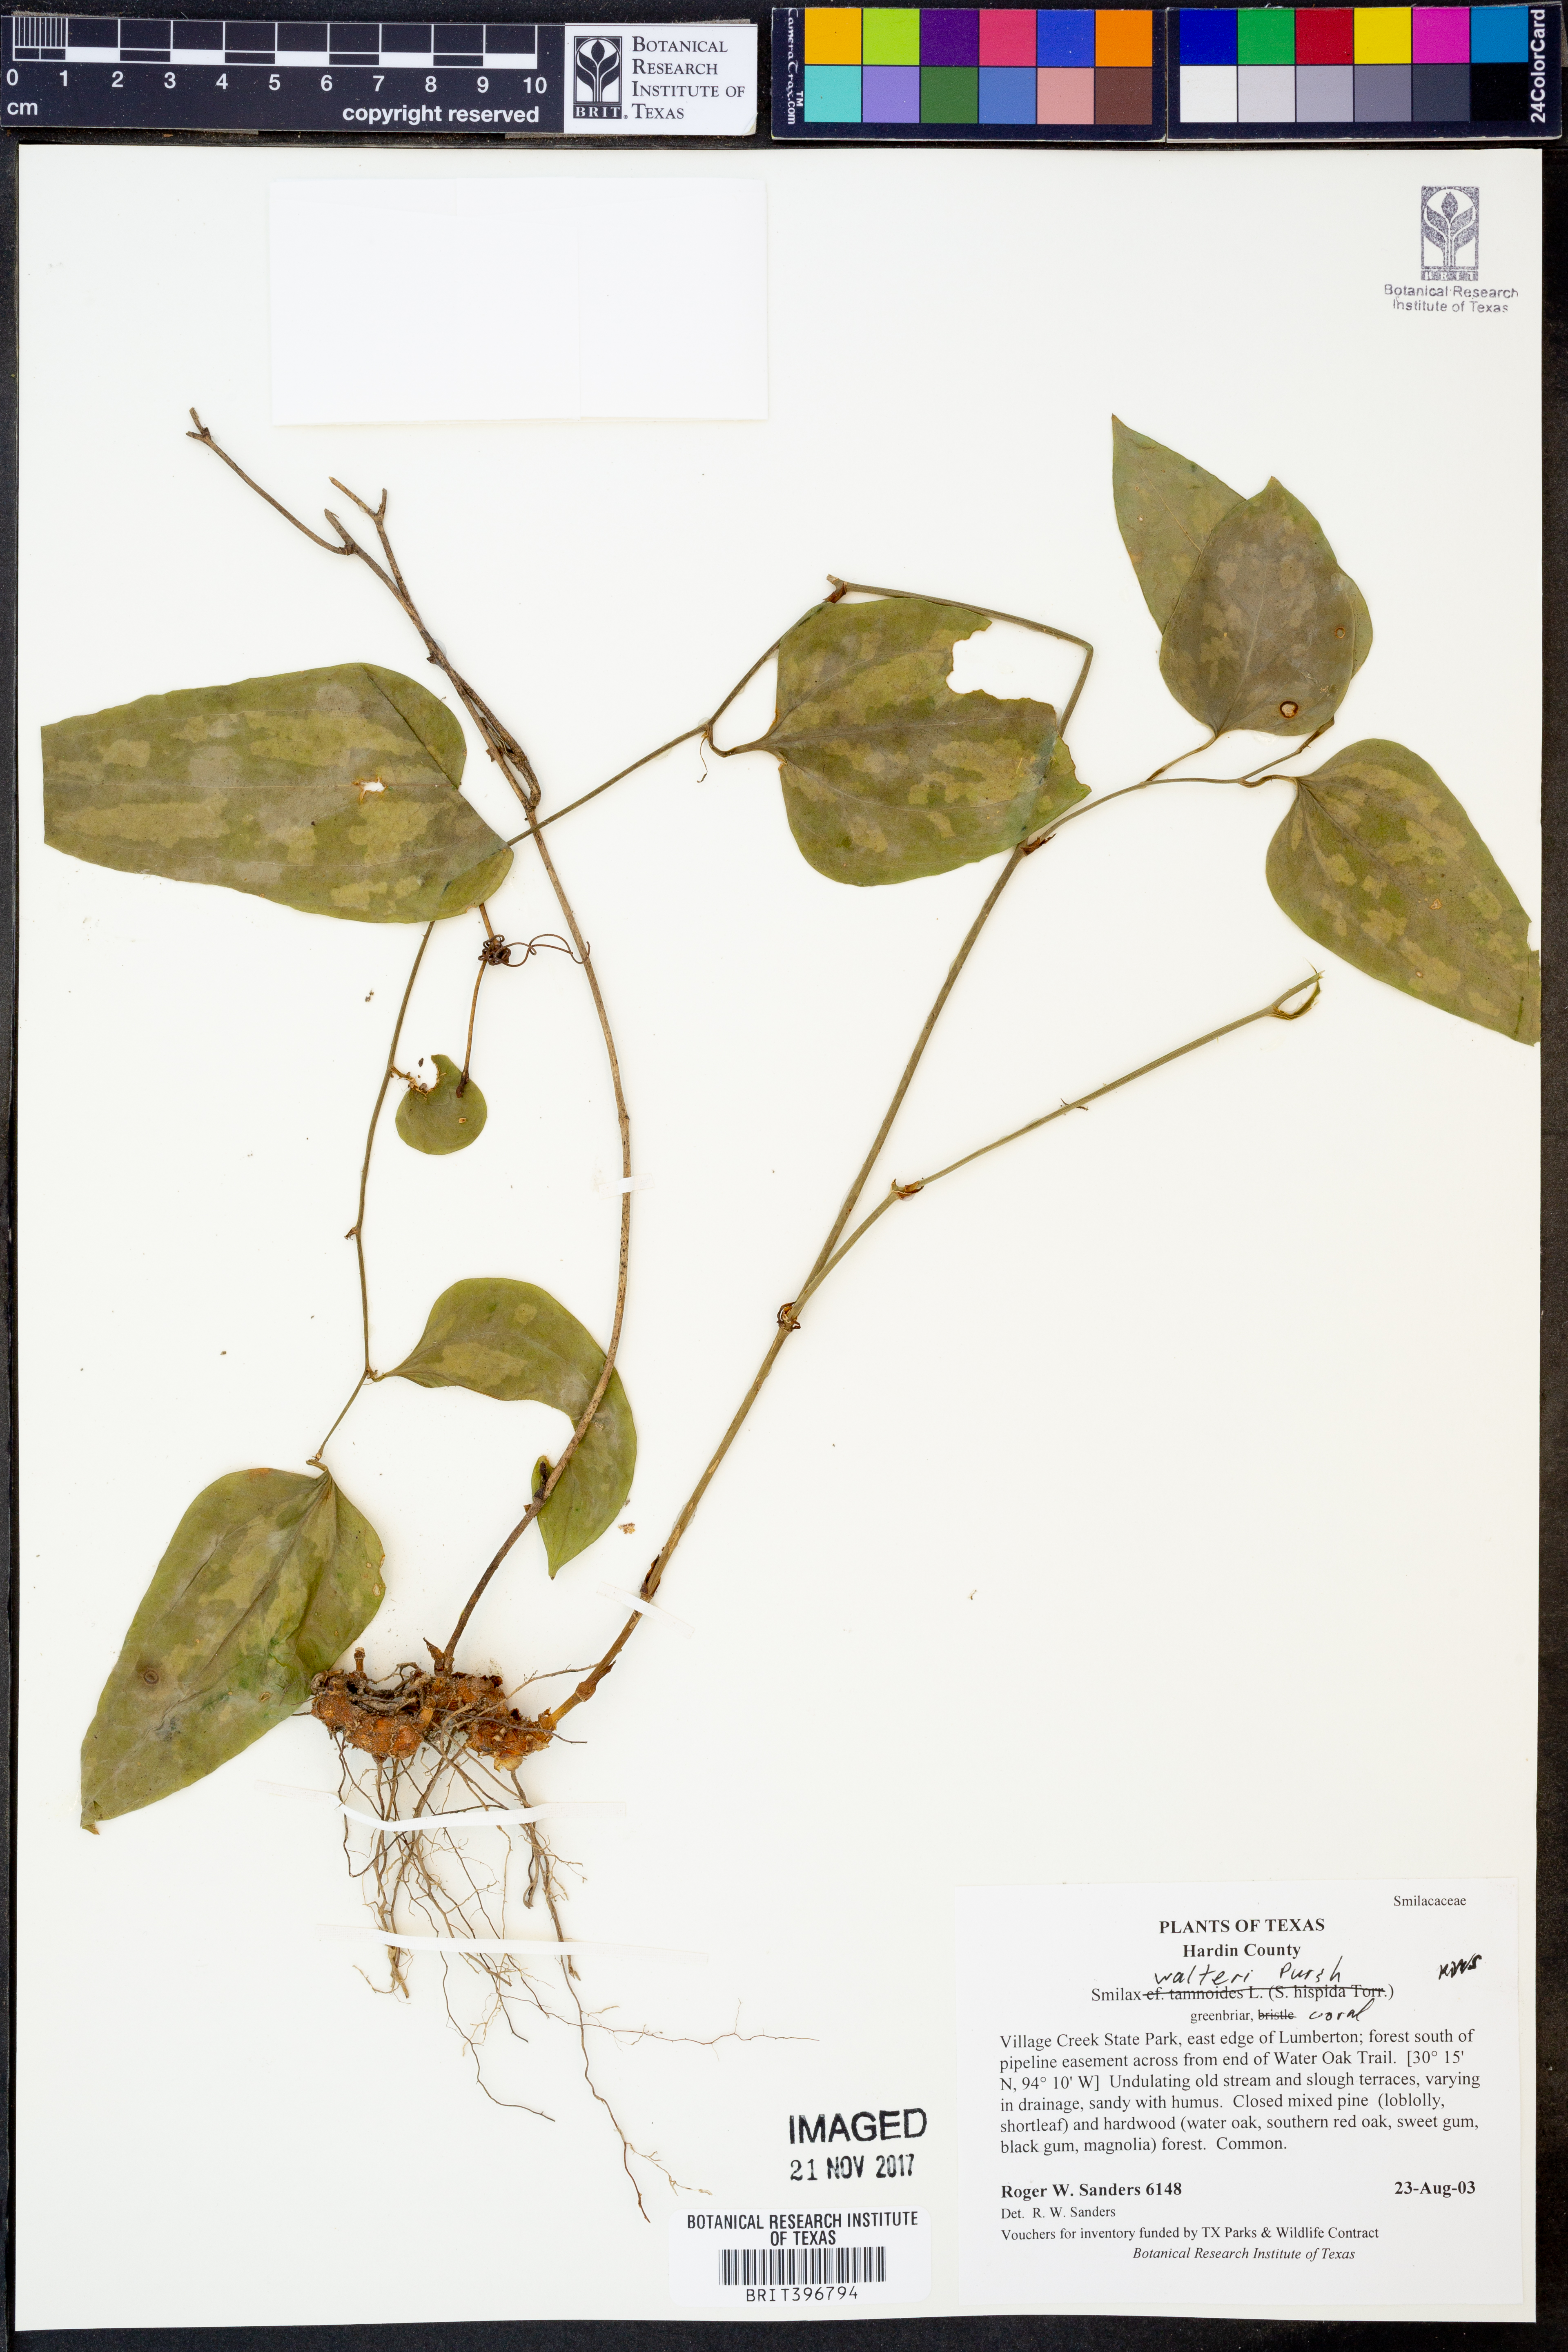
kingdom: Plantae
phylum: Tracheophyta
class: Liliopsida
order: Liliales
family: Smilacaceae
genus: Smilax
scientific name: Smilax walteri
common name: Coral greenbrier
